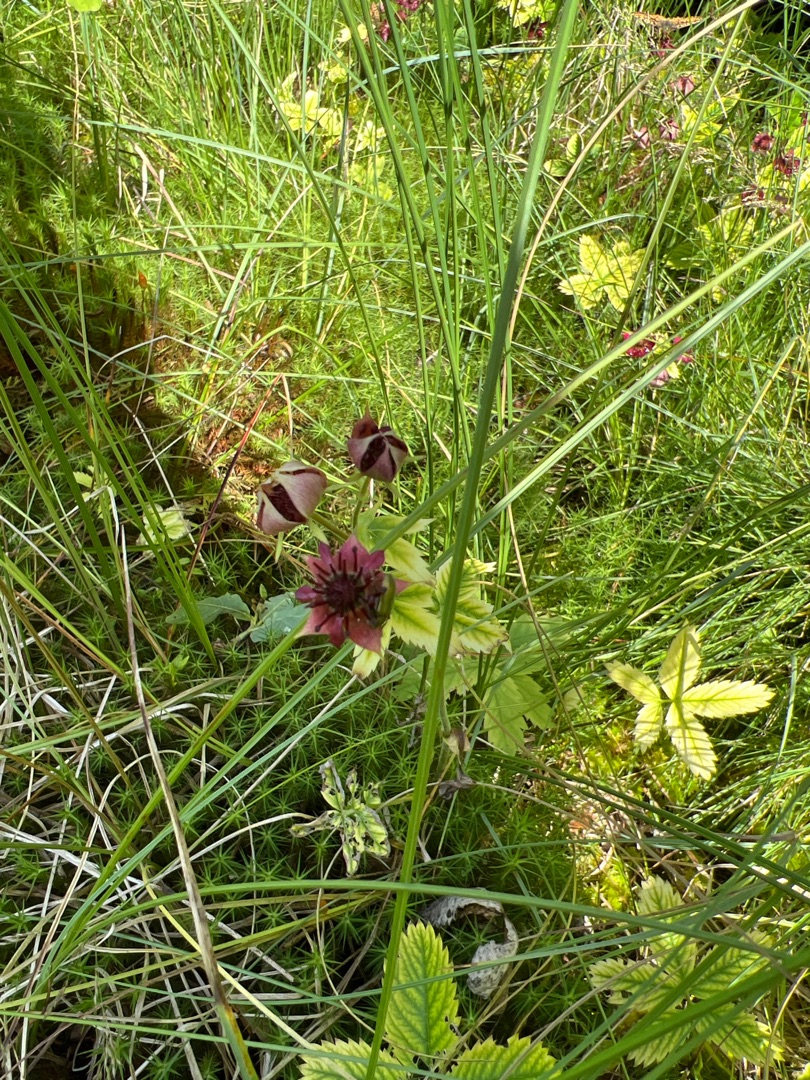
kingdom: Plantae
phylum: Tracheophyta
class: Magnoliopsida
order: Rosales
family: Rosaceae
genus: Comarum
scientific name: Comarum palustre
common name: Kragefod
